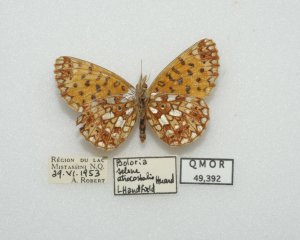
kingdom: Animalia
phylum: Arthropoda
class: Insecta
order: Lepidoptera
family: Nymphalidae
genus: Boloria
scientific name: Boloria selene
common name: Silver-bordered Fritillary
